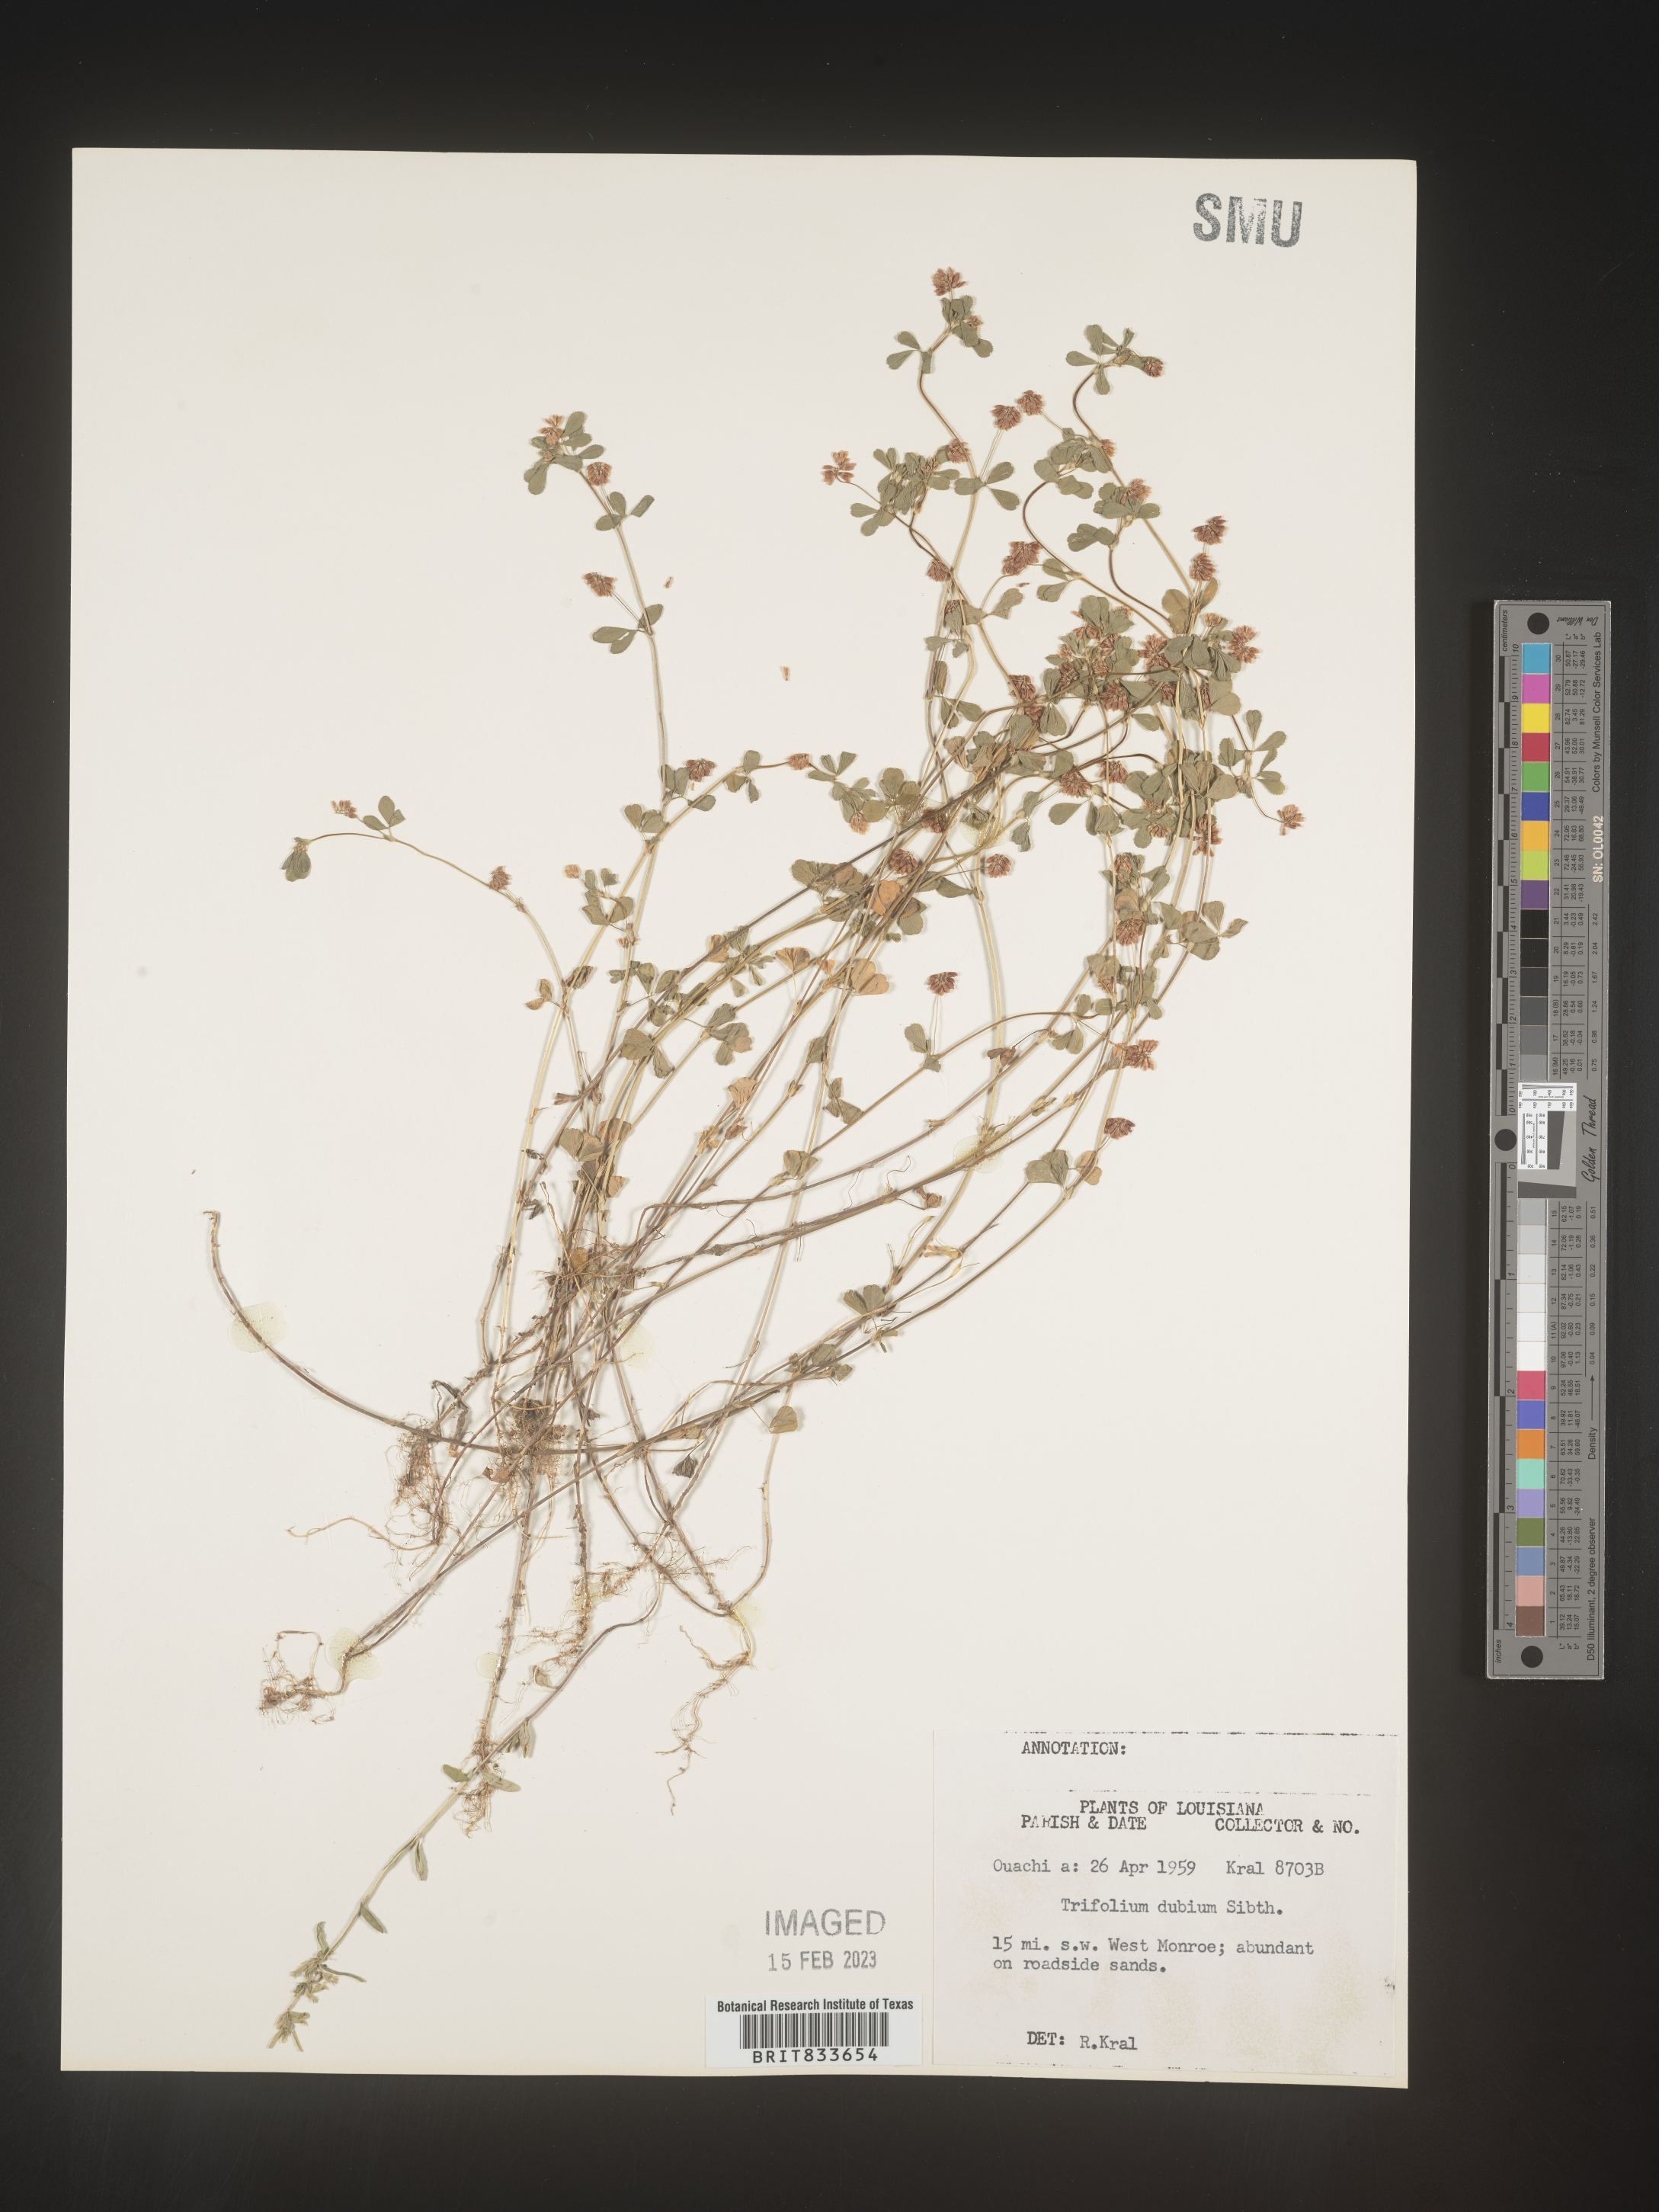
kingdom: Plantae
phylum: Tracheophyta
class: Magnoliopsida
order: Fabales
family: Fabaceae
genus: Trifolium
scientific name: Trifolium dubium
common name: Suckling clover
